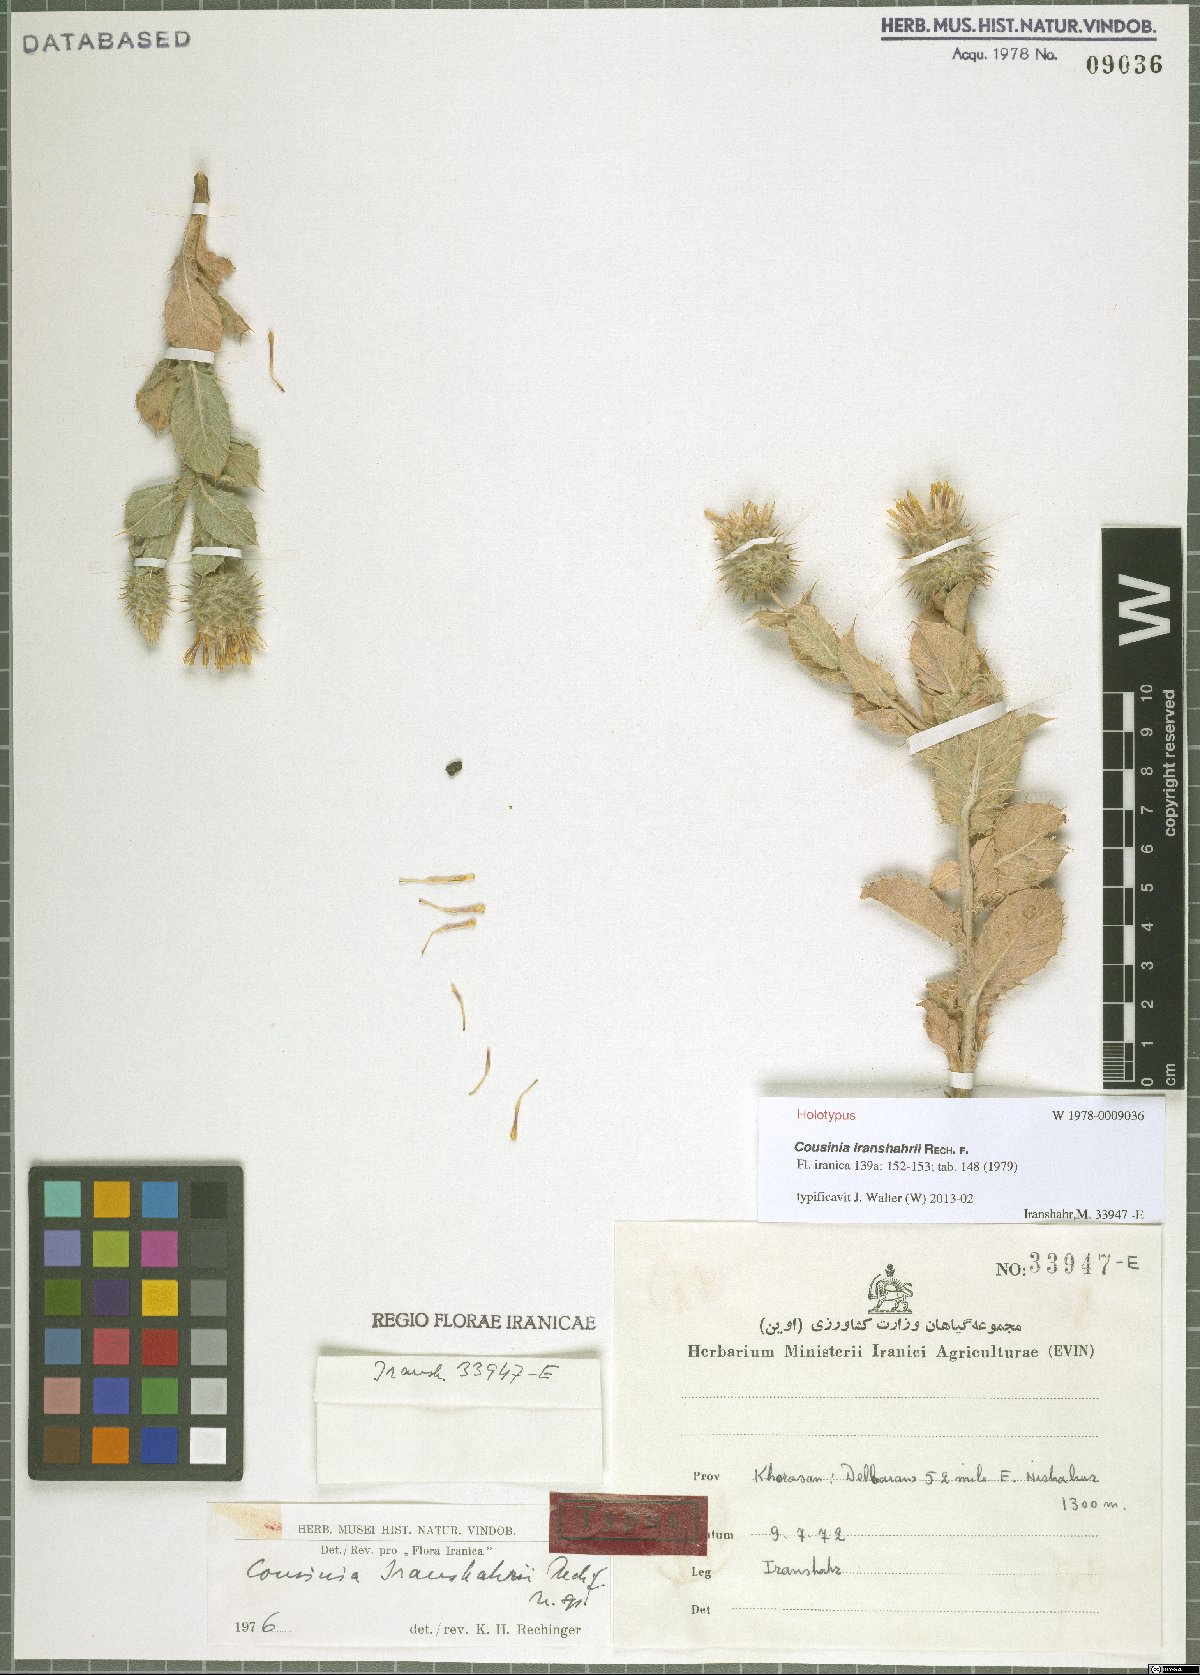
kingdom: Plantae
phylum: Tracheophyta
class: Magnoliopsida
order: Asterales
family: Asteraceae
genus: Cousinia
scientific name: Cousinia iranshahrii
